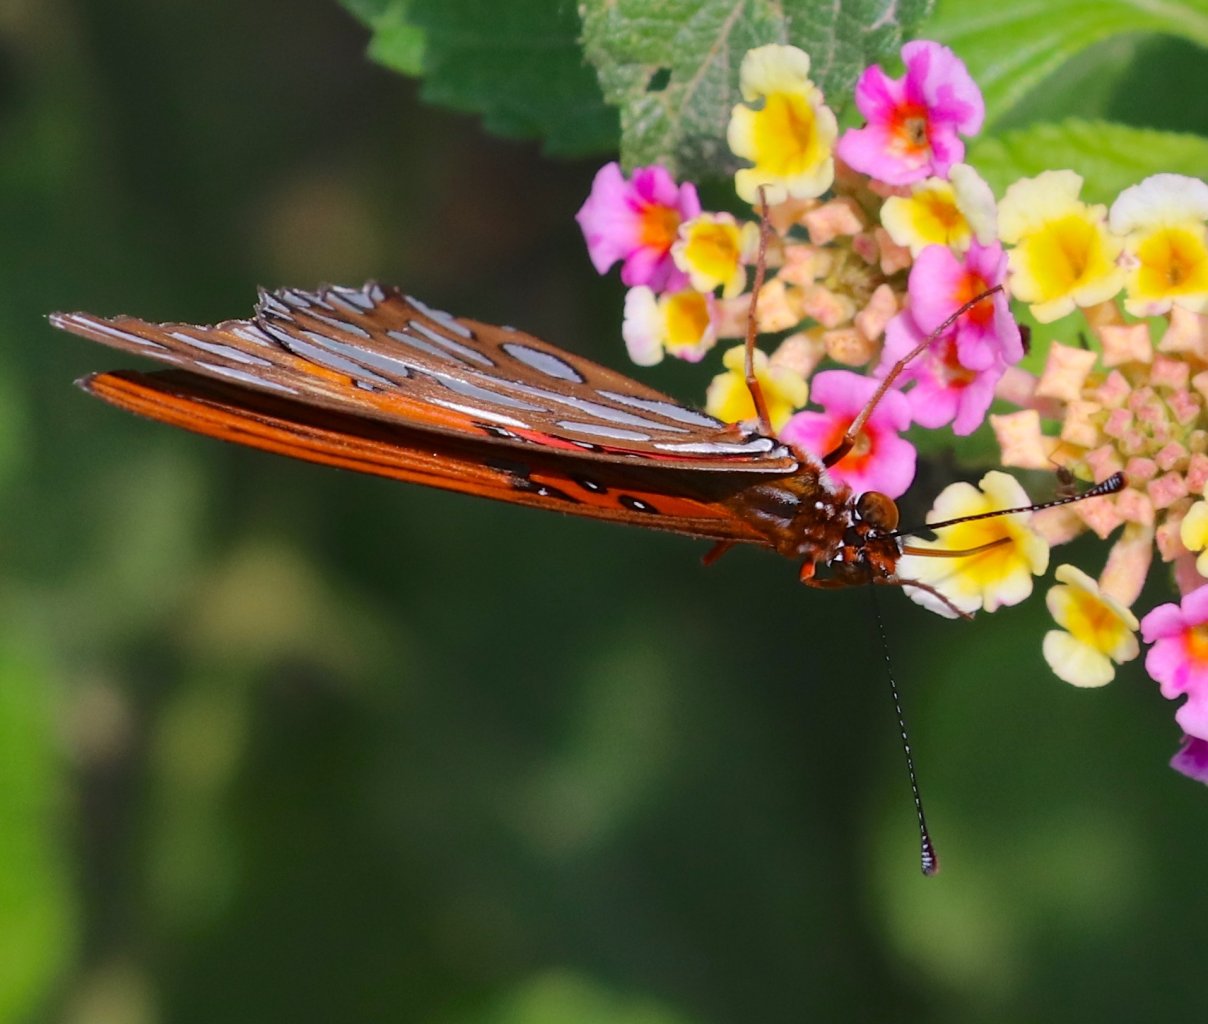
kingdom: Animalia
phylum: Arthropoda
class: Insecta
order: Lepidoptera
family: Nymphalidae
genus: Dione
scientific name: Dione vanillae
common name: Gulf Fritillary
